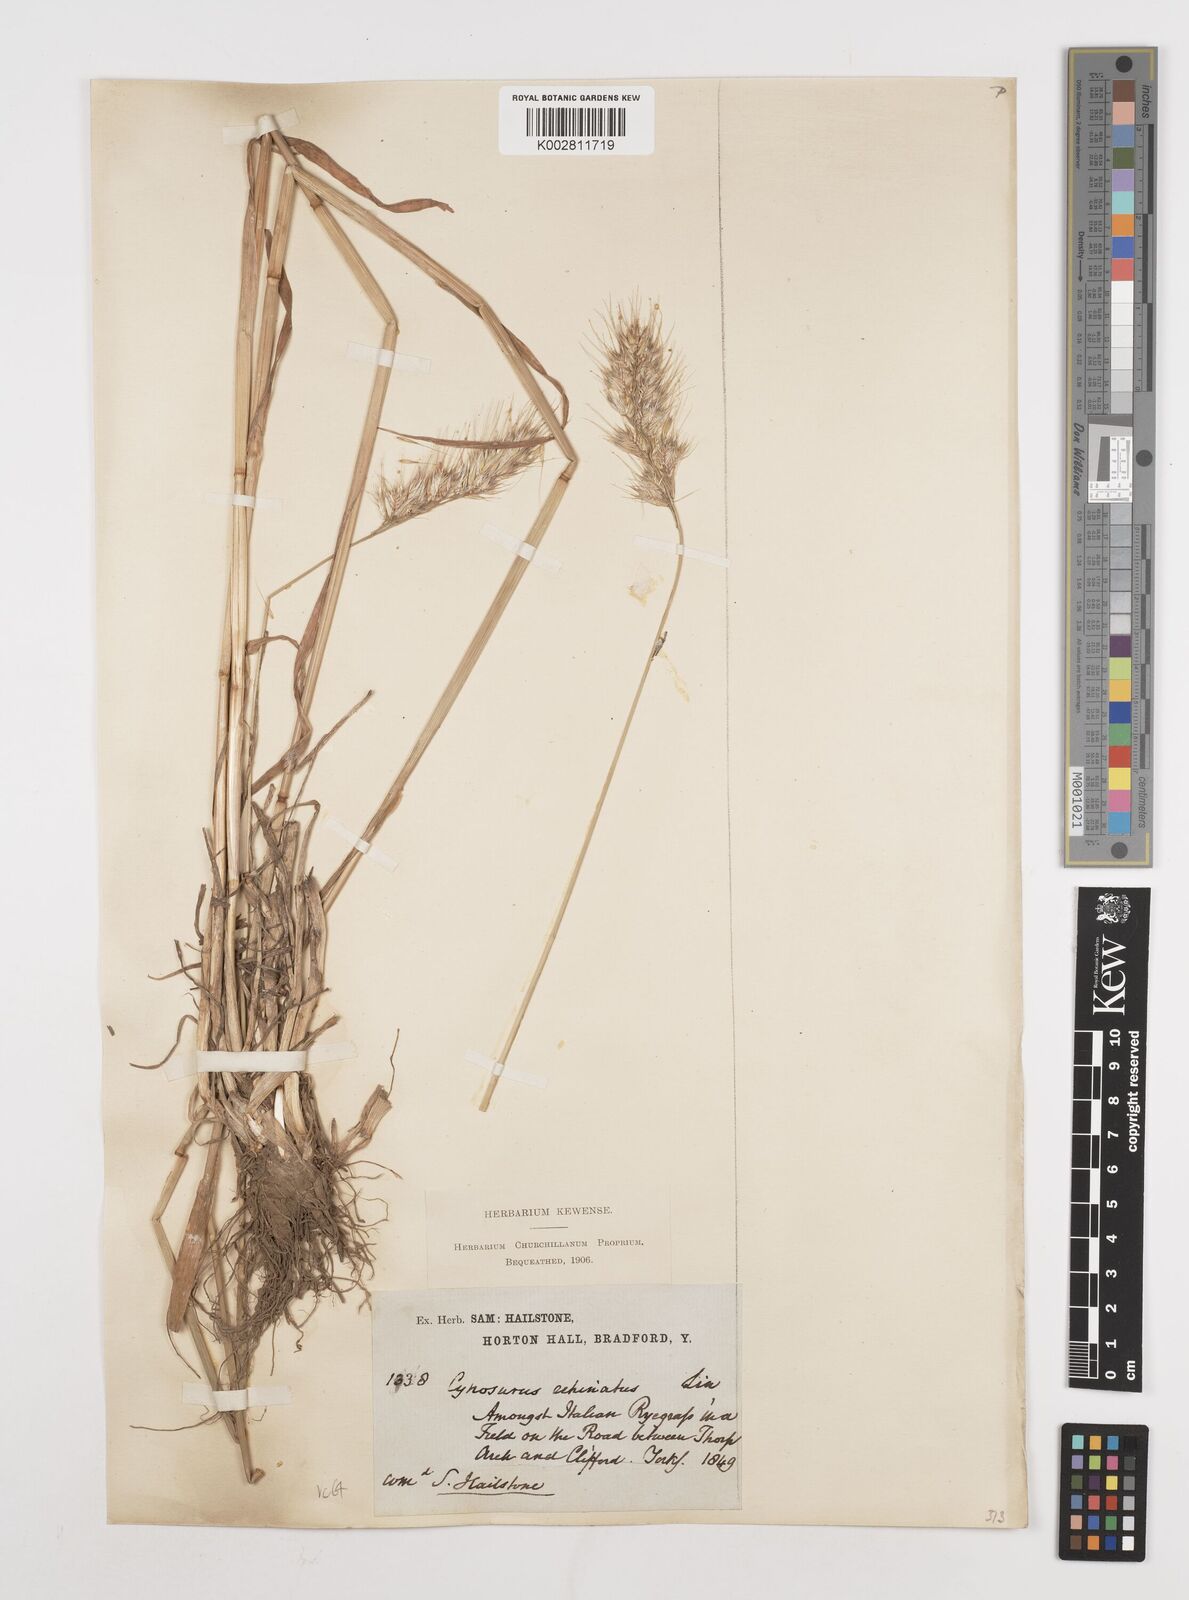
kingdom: Plantae
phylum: Tracheophyta
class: Liliopsida
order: Poales
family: Poaceae
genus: Cynosurus
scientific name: Cynosurus echinatus
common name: Rough dog's-tail
